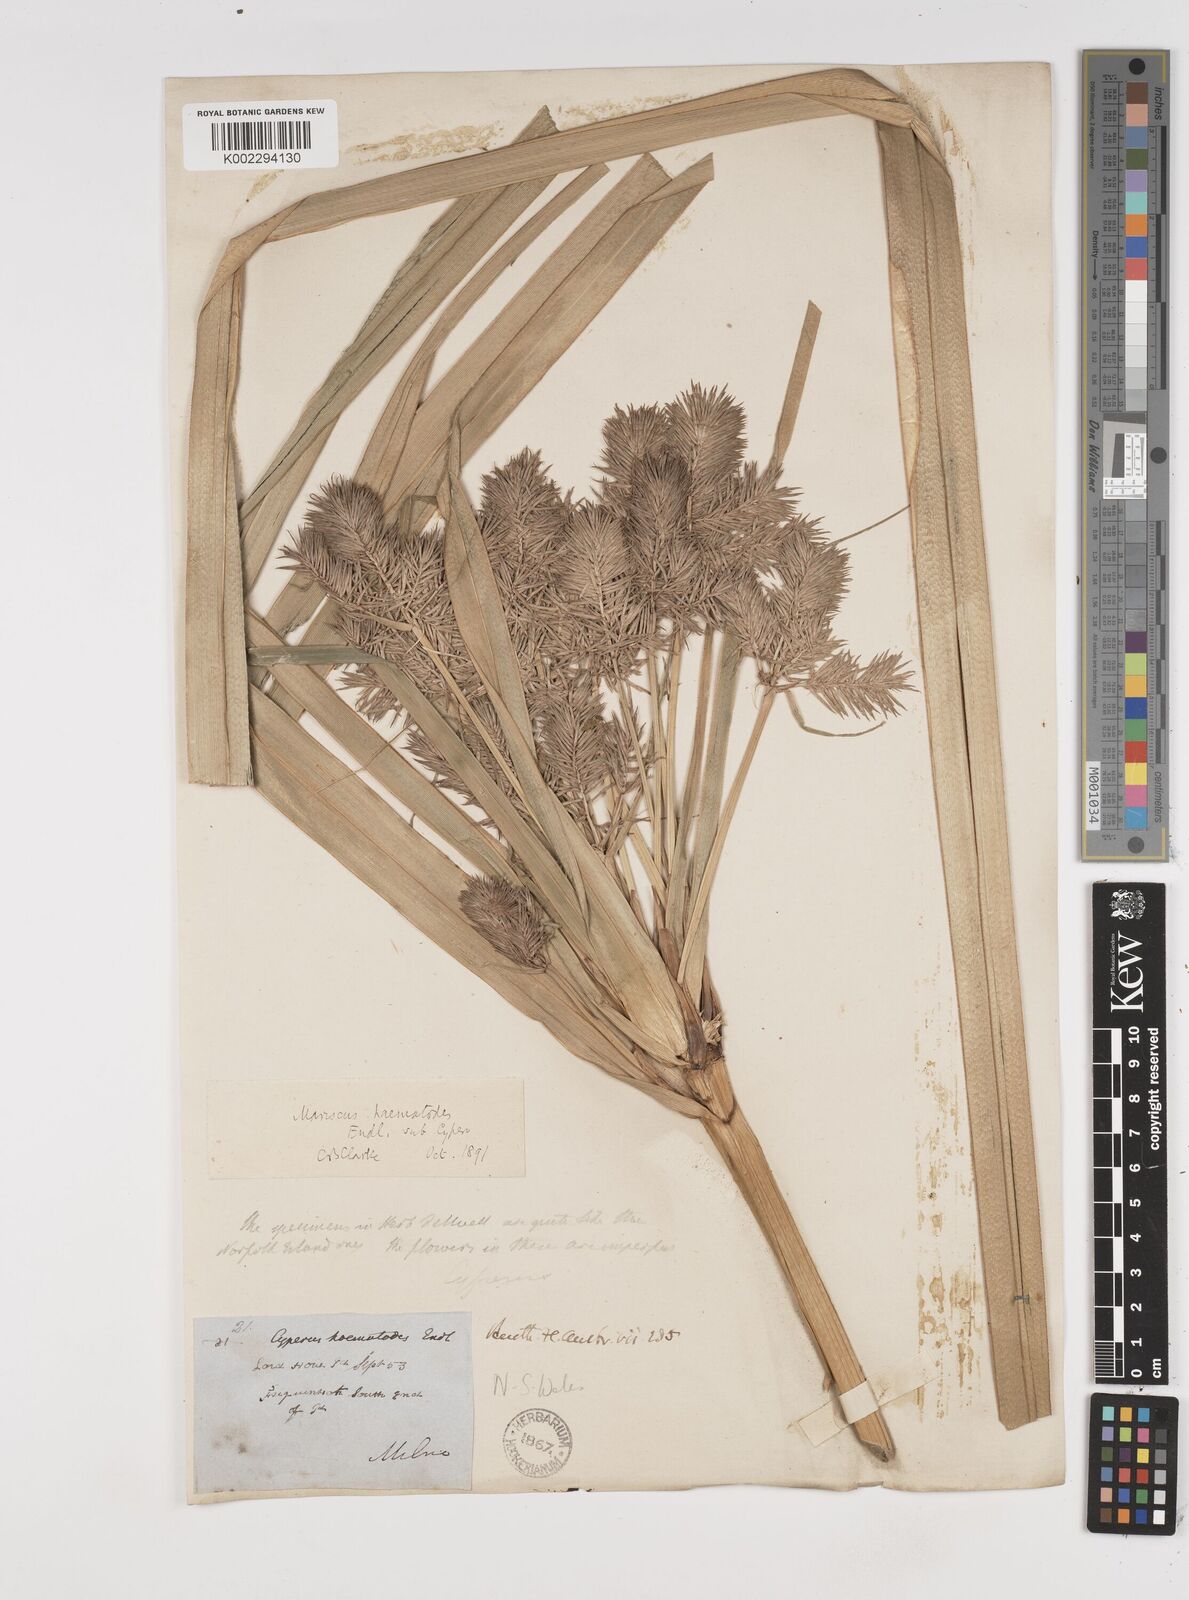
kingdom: Plantae
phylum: Tracheophyta
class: Liliopsida
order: Poales
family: Cyperaceae
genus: Cyperus
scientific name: Cyperus lucidus
